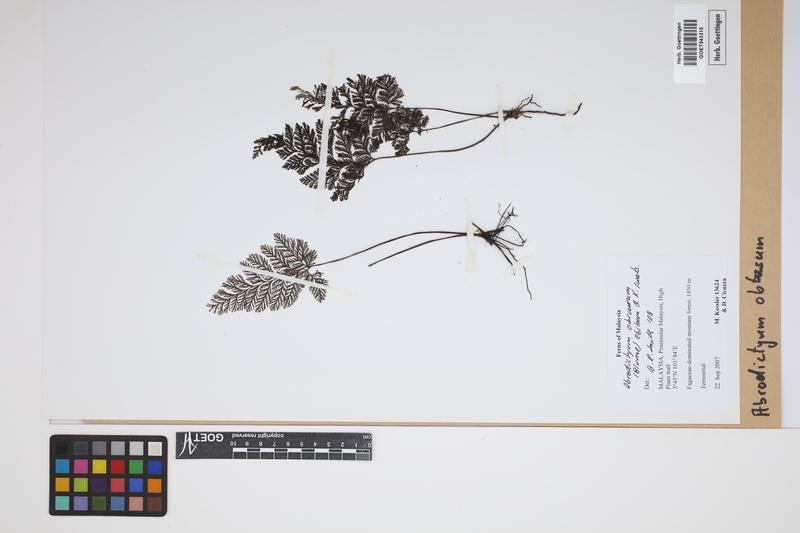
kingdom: Plantae
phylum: Tracheophyta
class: Polypodiopsida
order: Hymenophyllales
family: Hymenophyllaceae
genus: Abrodictyum
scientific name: Abrodictyum obscurum
